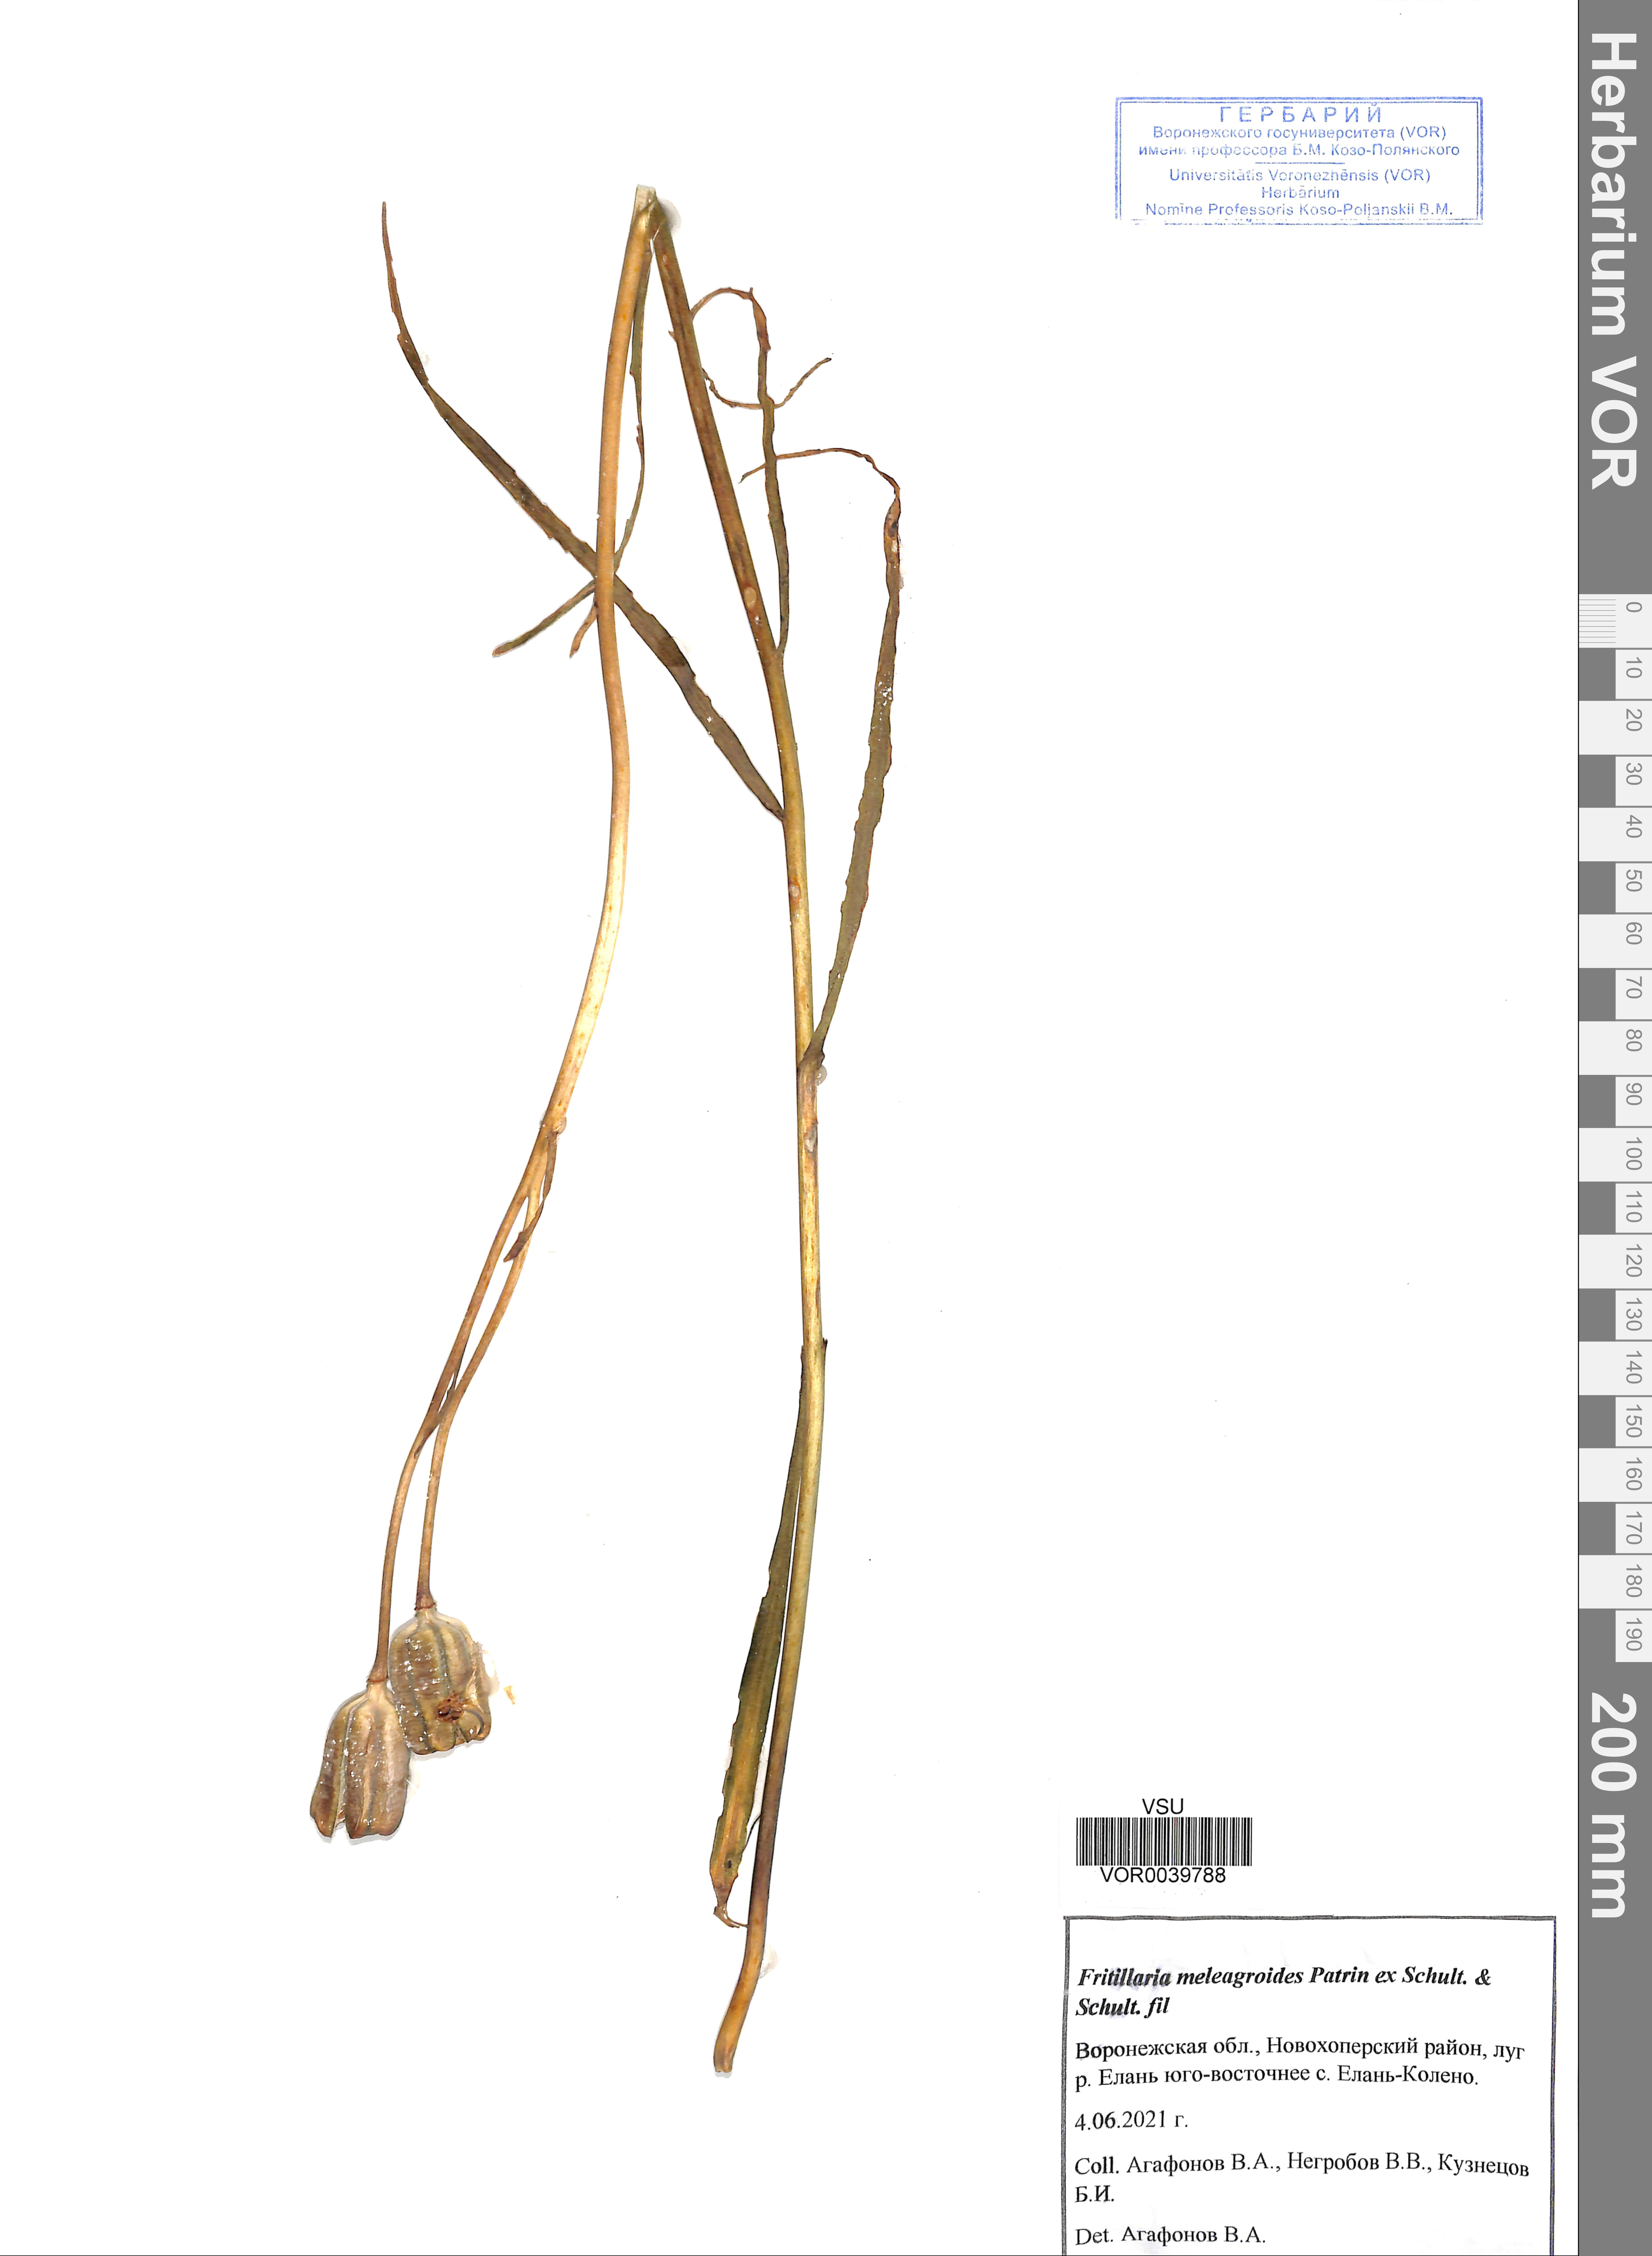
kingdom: Plantae
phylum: Tracheophyta
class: Liliopsida
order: Liliales
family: Liliaceae
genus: Fritillaria
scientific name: Fritillaria meleagroides
